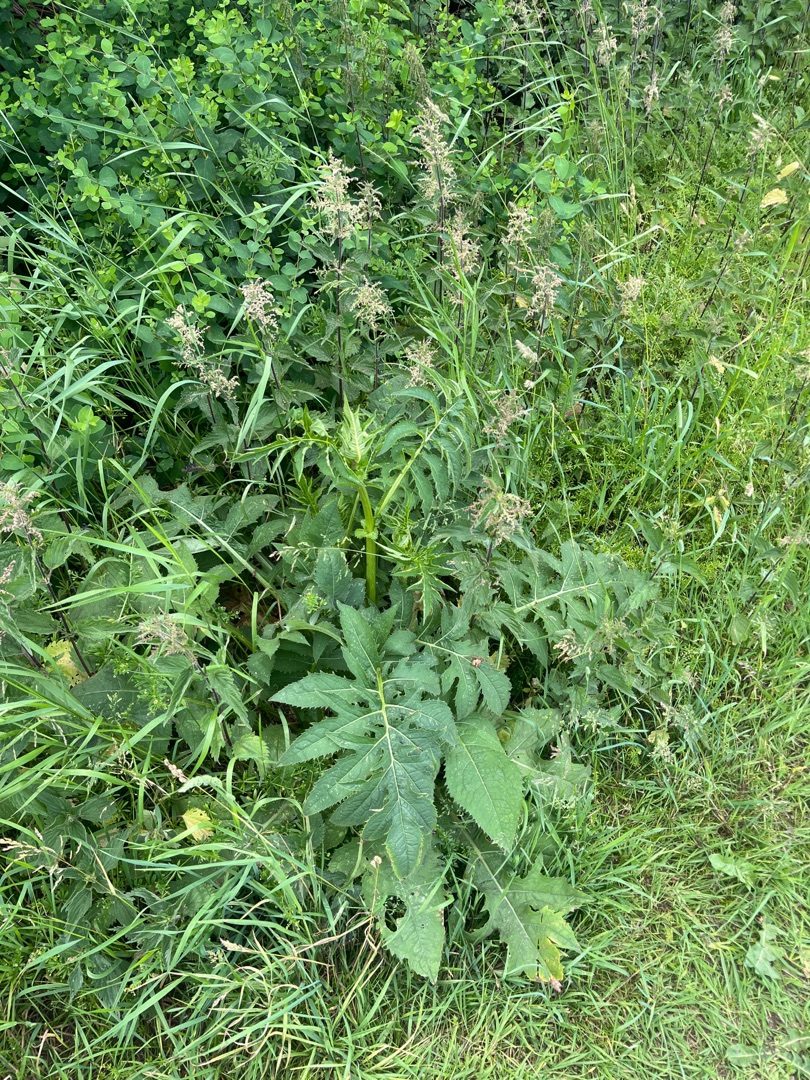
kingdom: Plantae
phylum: Tracheophyta
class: Magnoliopsida
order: Asterales
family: Asteraceae
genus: Cirsium
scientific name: Cirsium oleraceum
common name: Kål-tidsel
